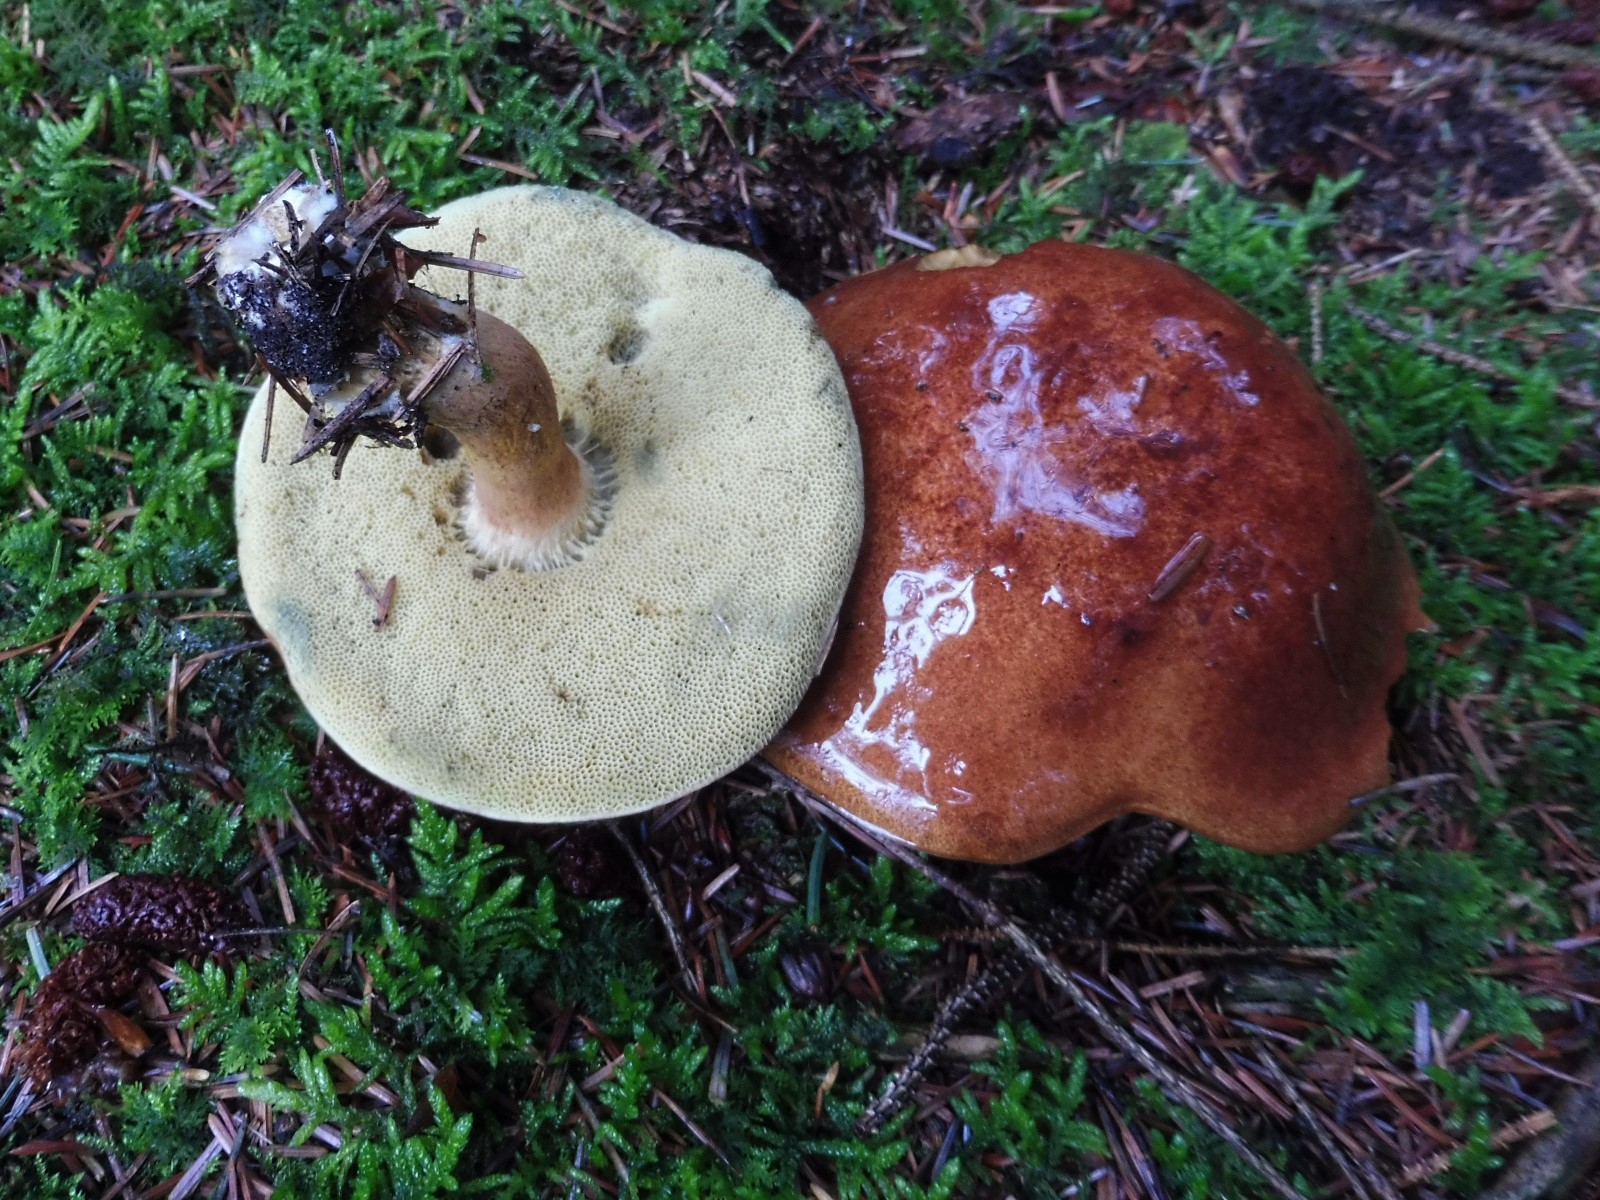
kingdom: Fungi
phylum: Basidiomycota
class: Agaricomycetes
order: Boletales
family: Boletaceae
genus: Imleria
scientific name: Imleria badia
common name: brunstokket rørhat
